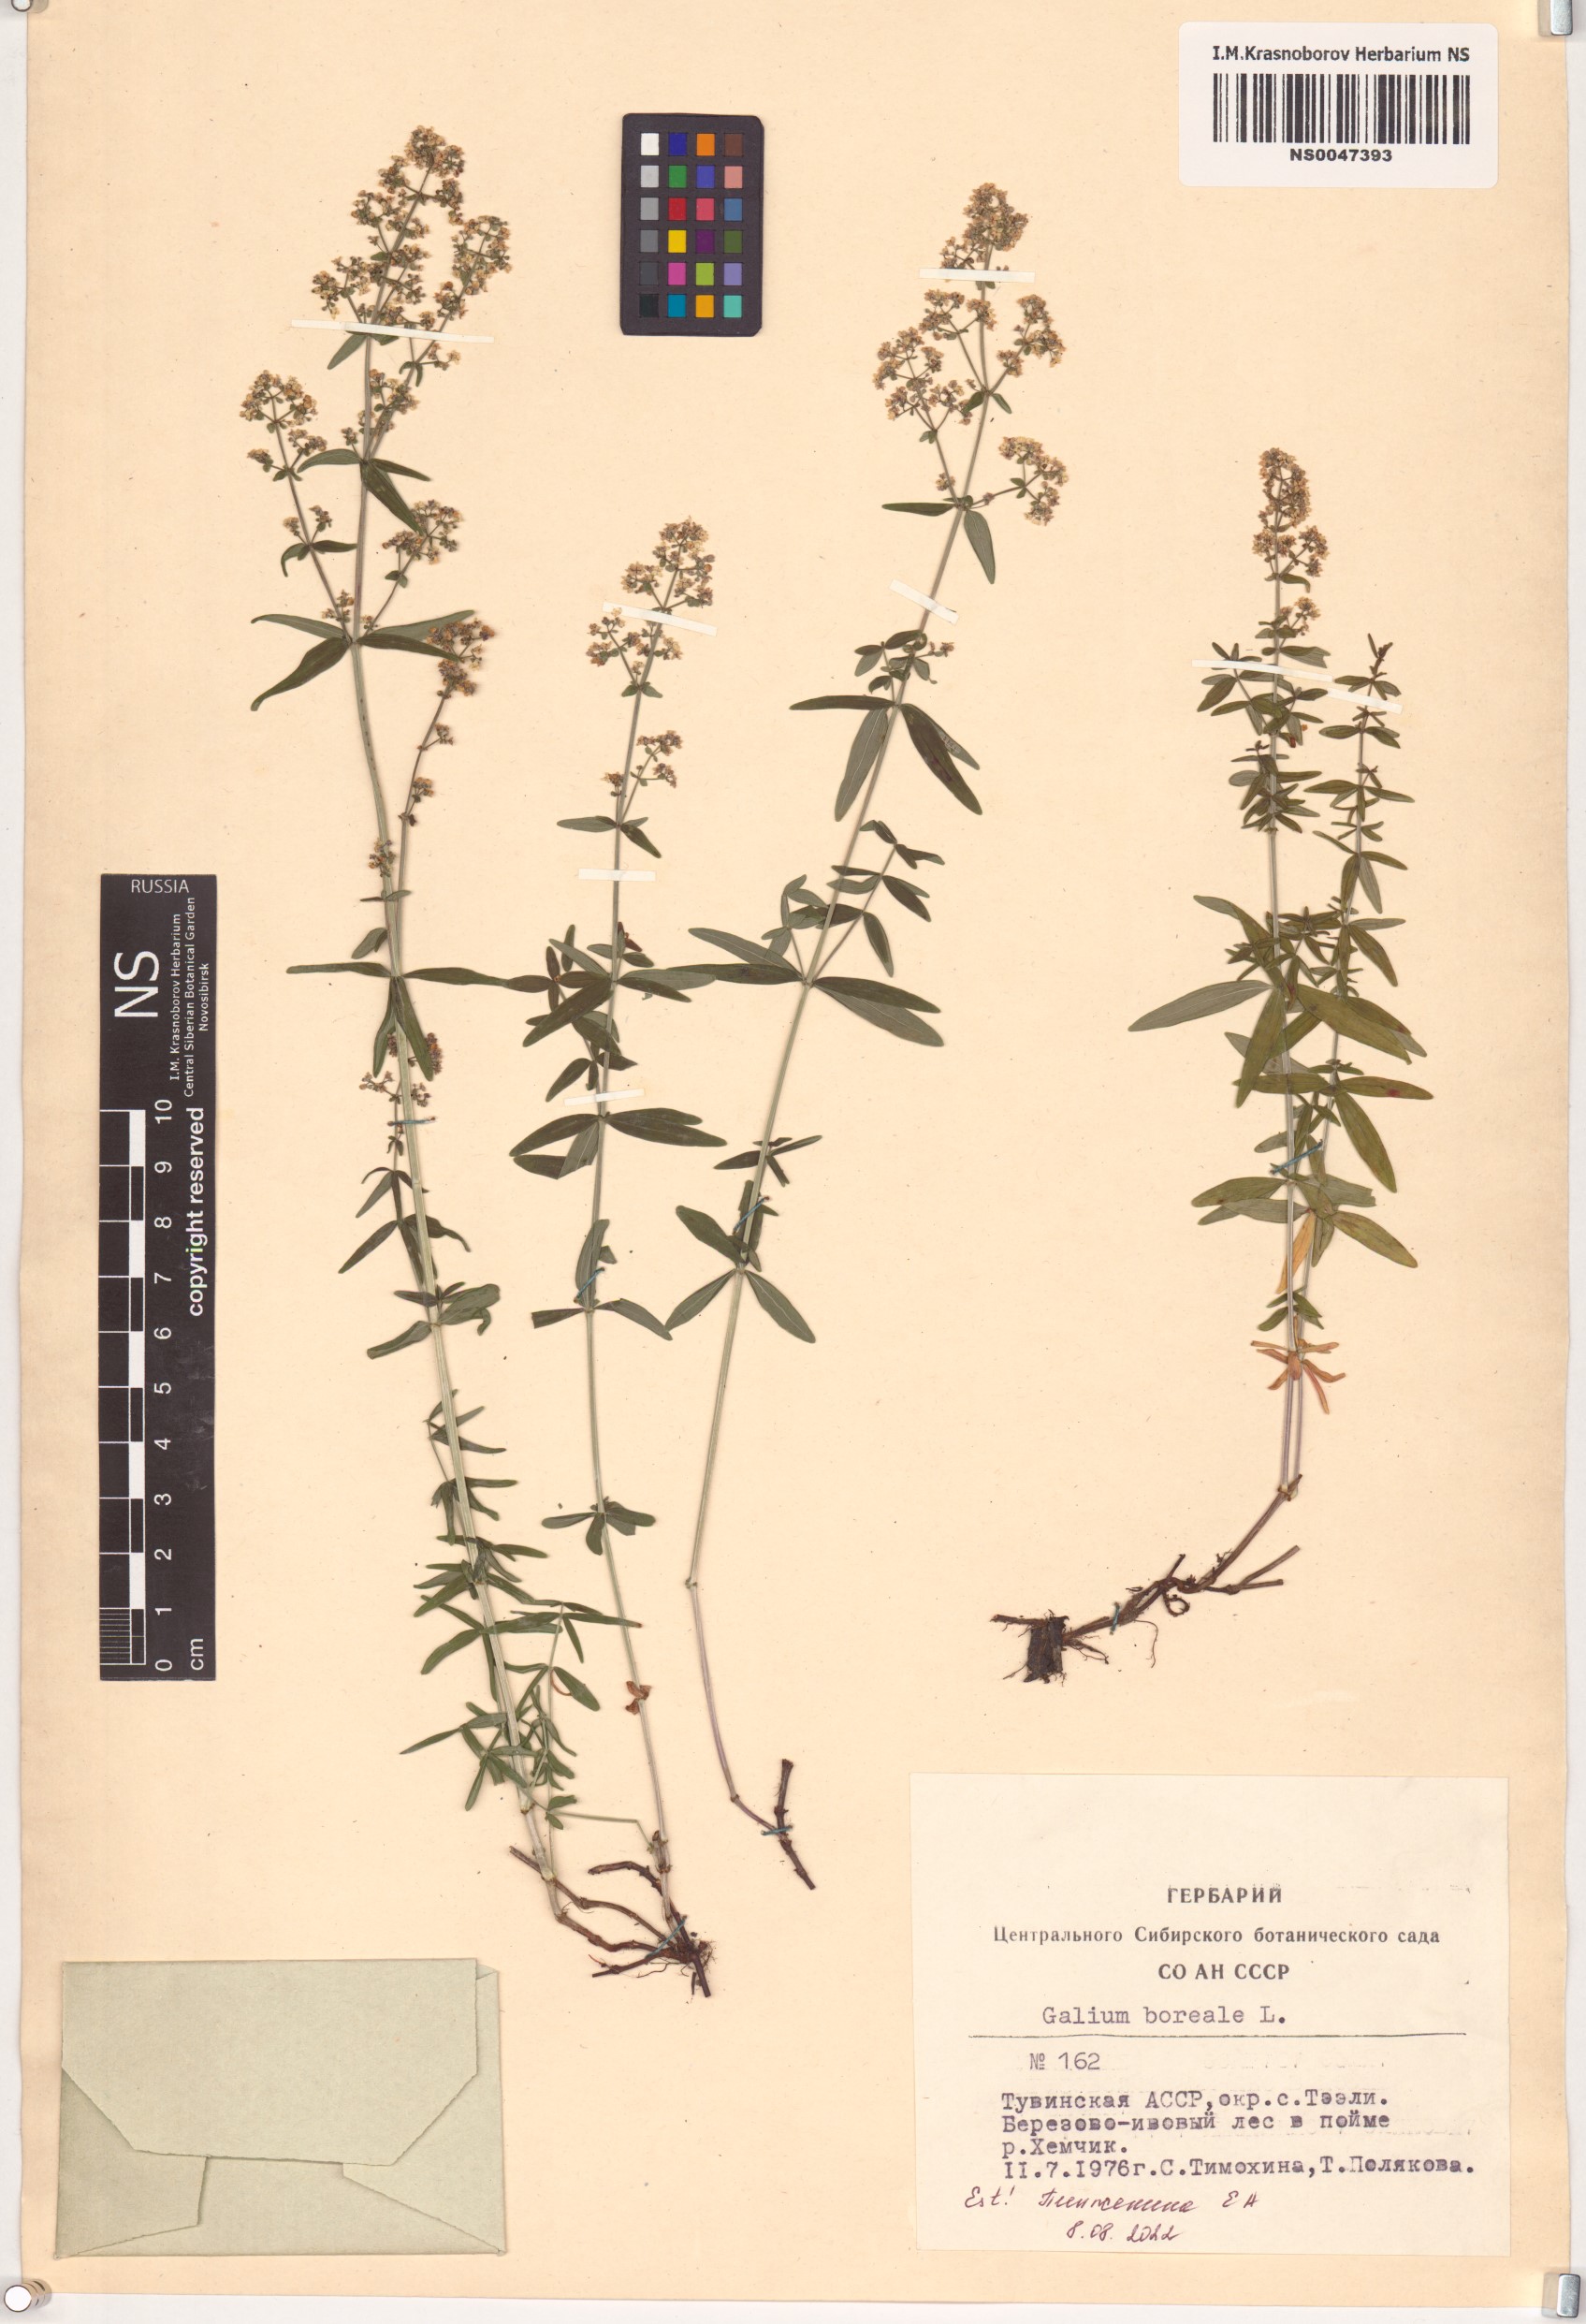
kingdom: Plantae
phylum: Tracheophyta
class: Magnoliopsida
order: Gentianales
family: Rubiaceae
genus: Galium
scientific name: Galium boreale
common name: Northern bedstraw
